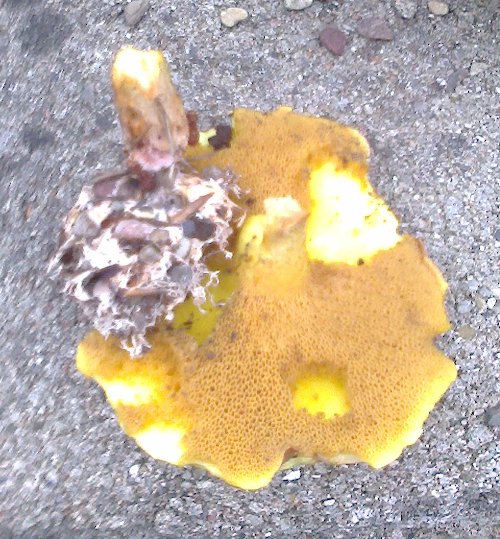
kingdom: Fungi
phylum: Basidiomycota
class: Agaricomycetes
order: Boletales
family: Suillaceae
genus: Suillus
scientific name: Suillus collinitus
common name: rosafodet slimrørhat
